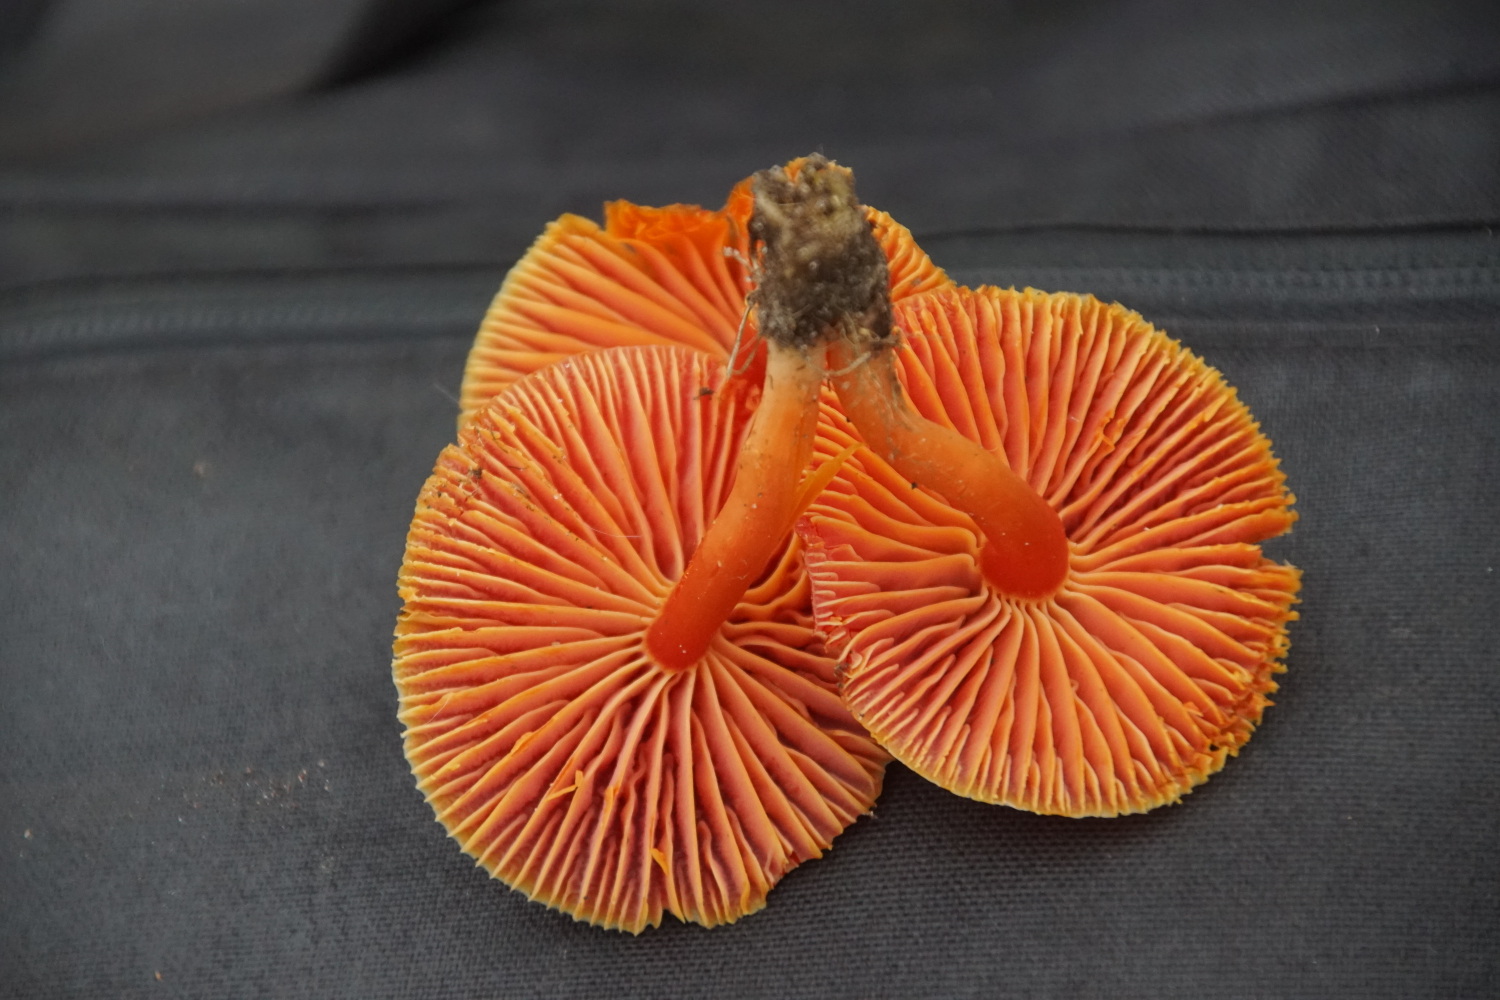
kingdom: Fungi
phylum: Basidiomycota
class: Agaricomycetes
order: Agaricales
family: Hygrophoraceae
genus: Hygrocybe
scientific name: Hygrocybe coccinea
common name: cinnober-vokshat
